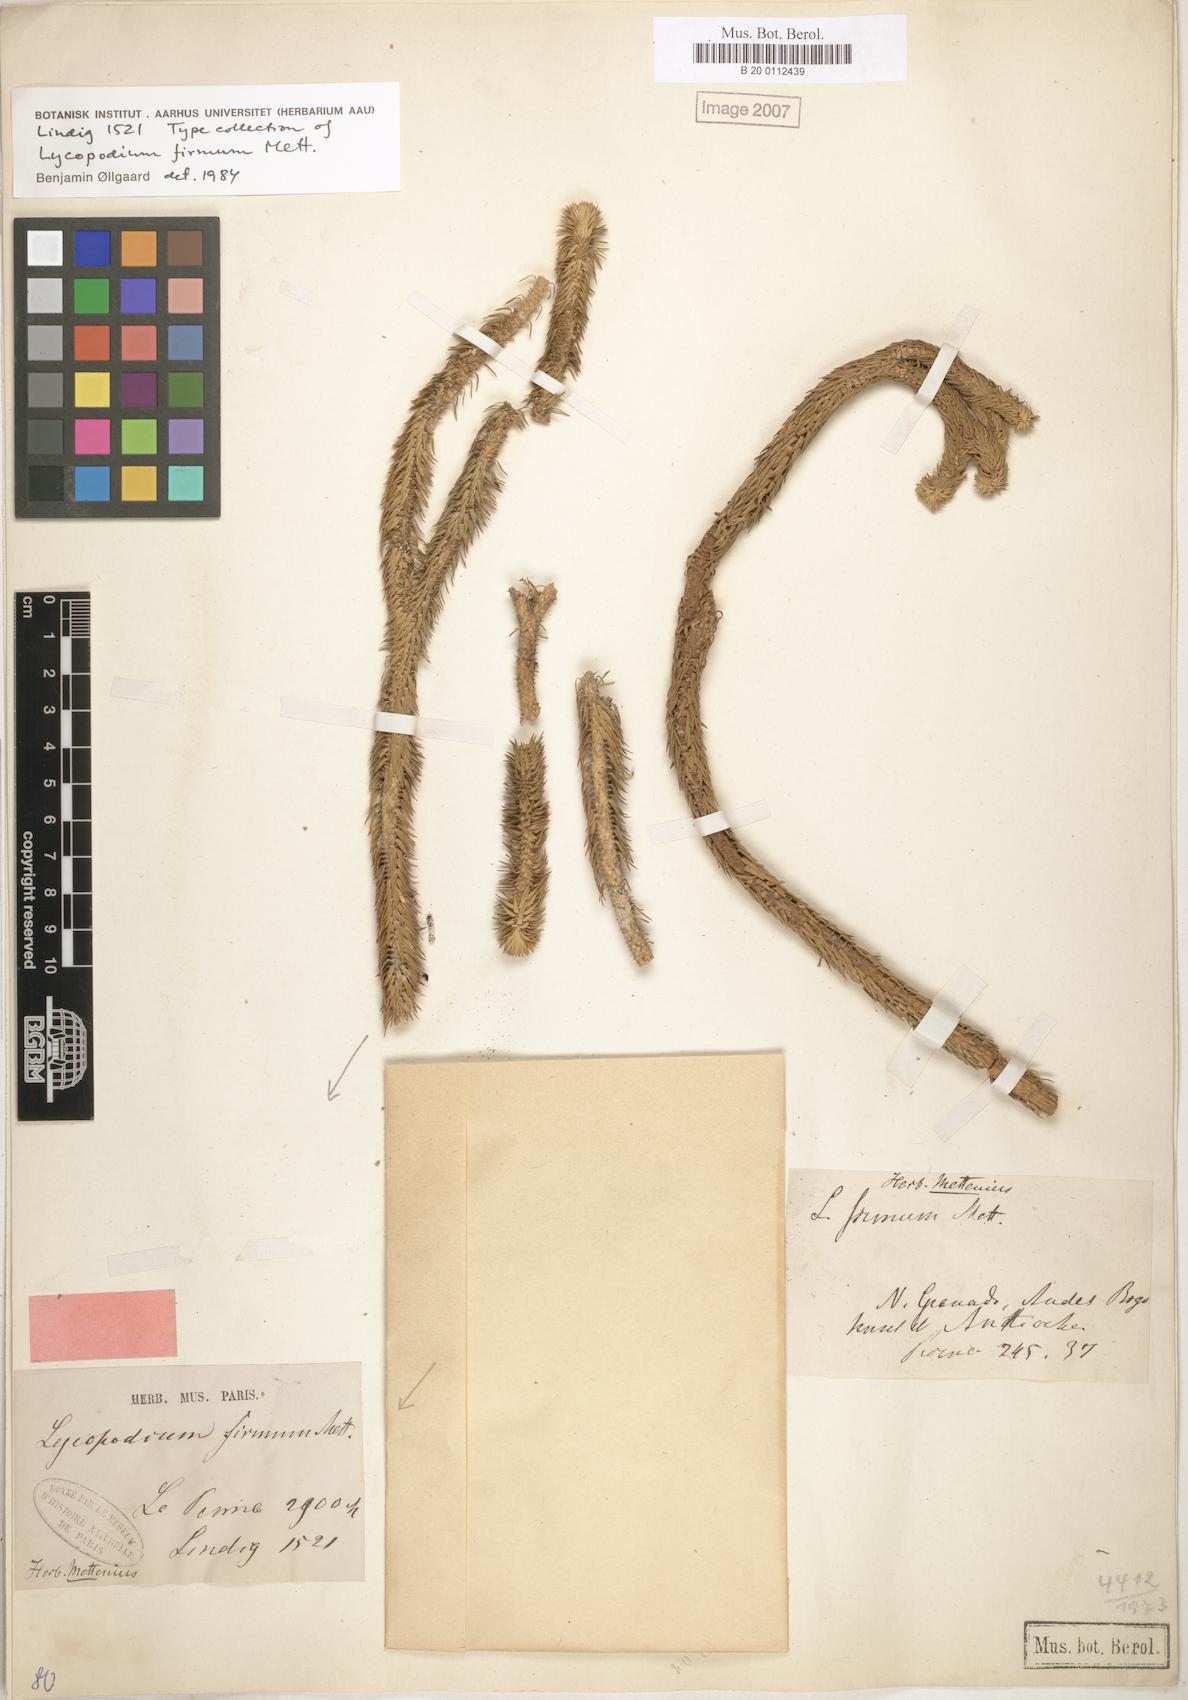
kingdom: Plantae
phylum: Tracheophyta
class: Lycopodiopsida
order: Lycopodiales
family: Lycopodiaceae
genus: Phlegmariurus
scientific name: Phlegmariurus firmus
